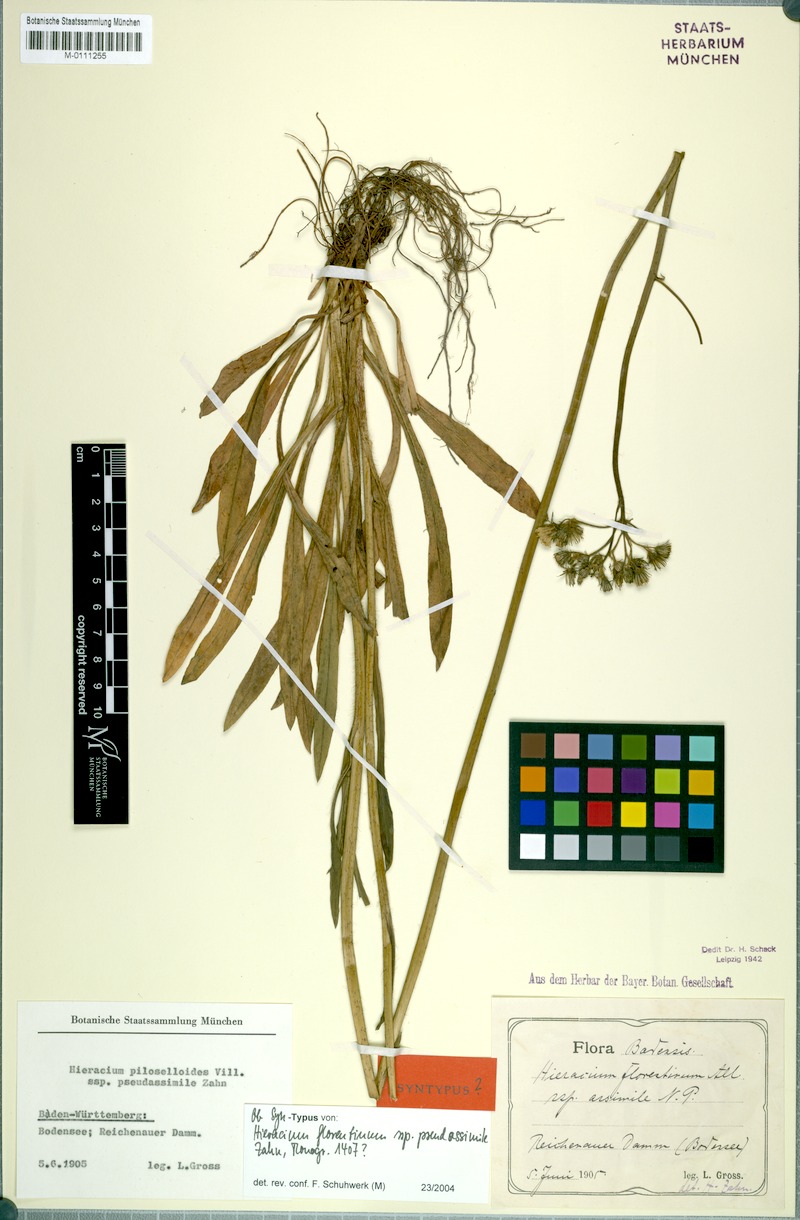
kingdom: Plantae
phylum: Tracheophyta
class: Magnoliopsida
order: Asterales
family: Asteraceae
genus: Pilosella
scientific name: Pilosella piloselloides
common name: Glaucous king-devil
